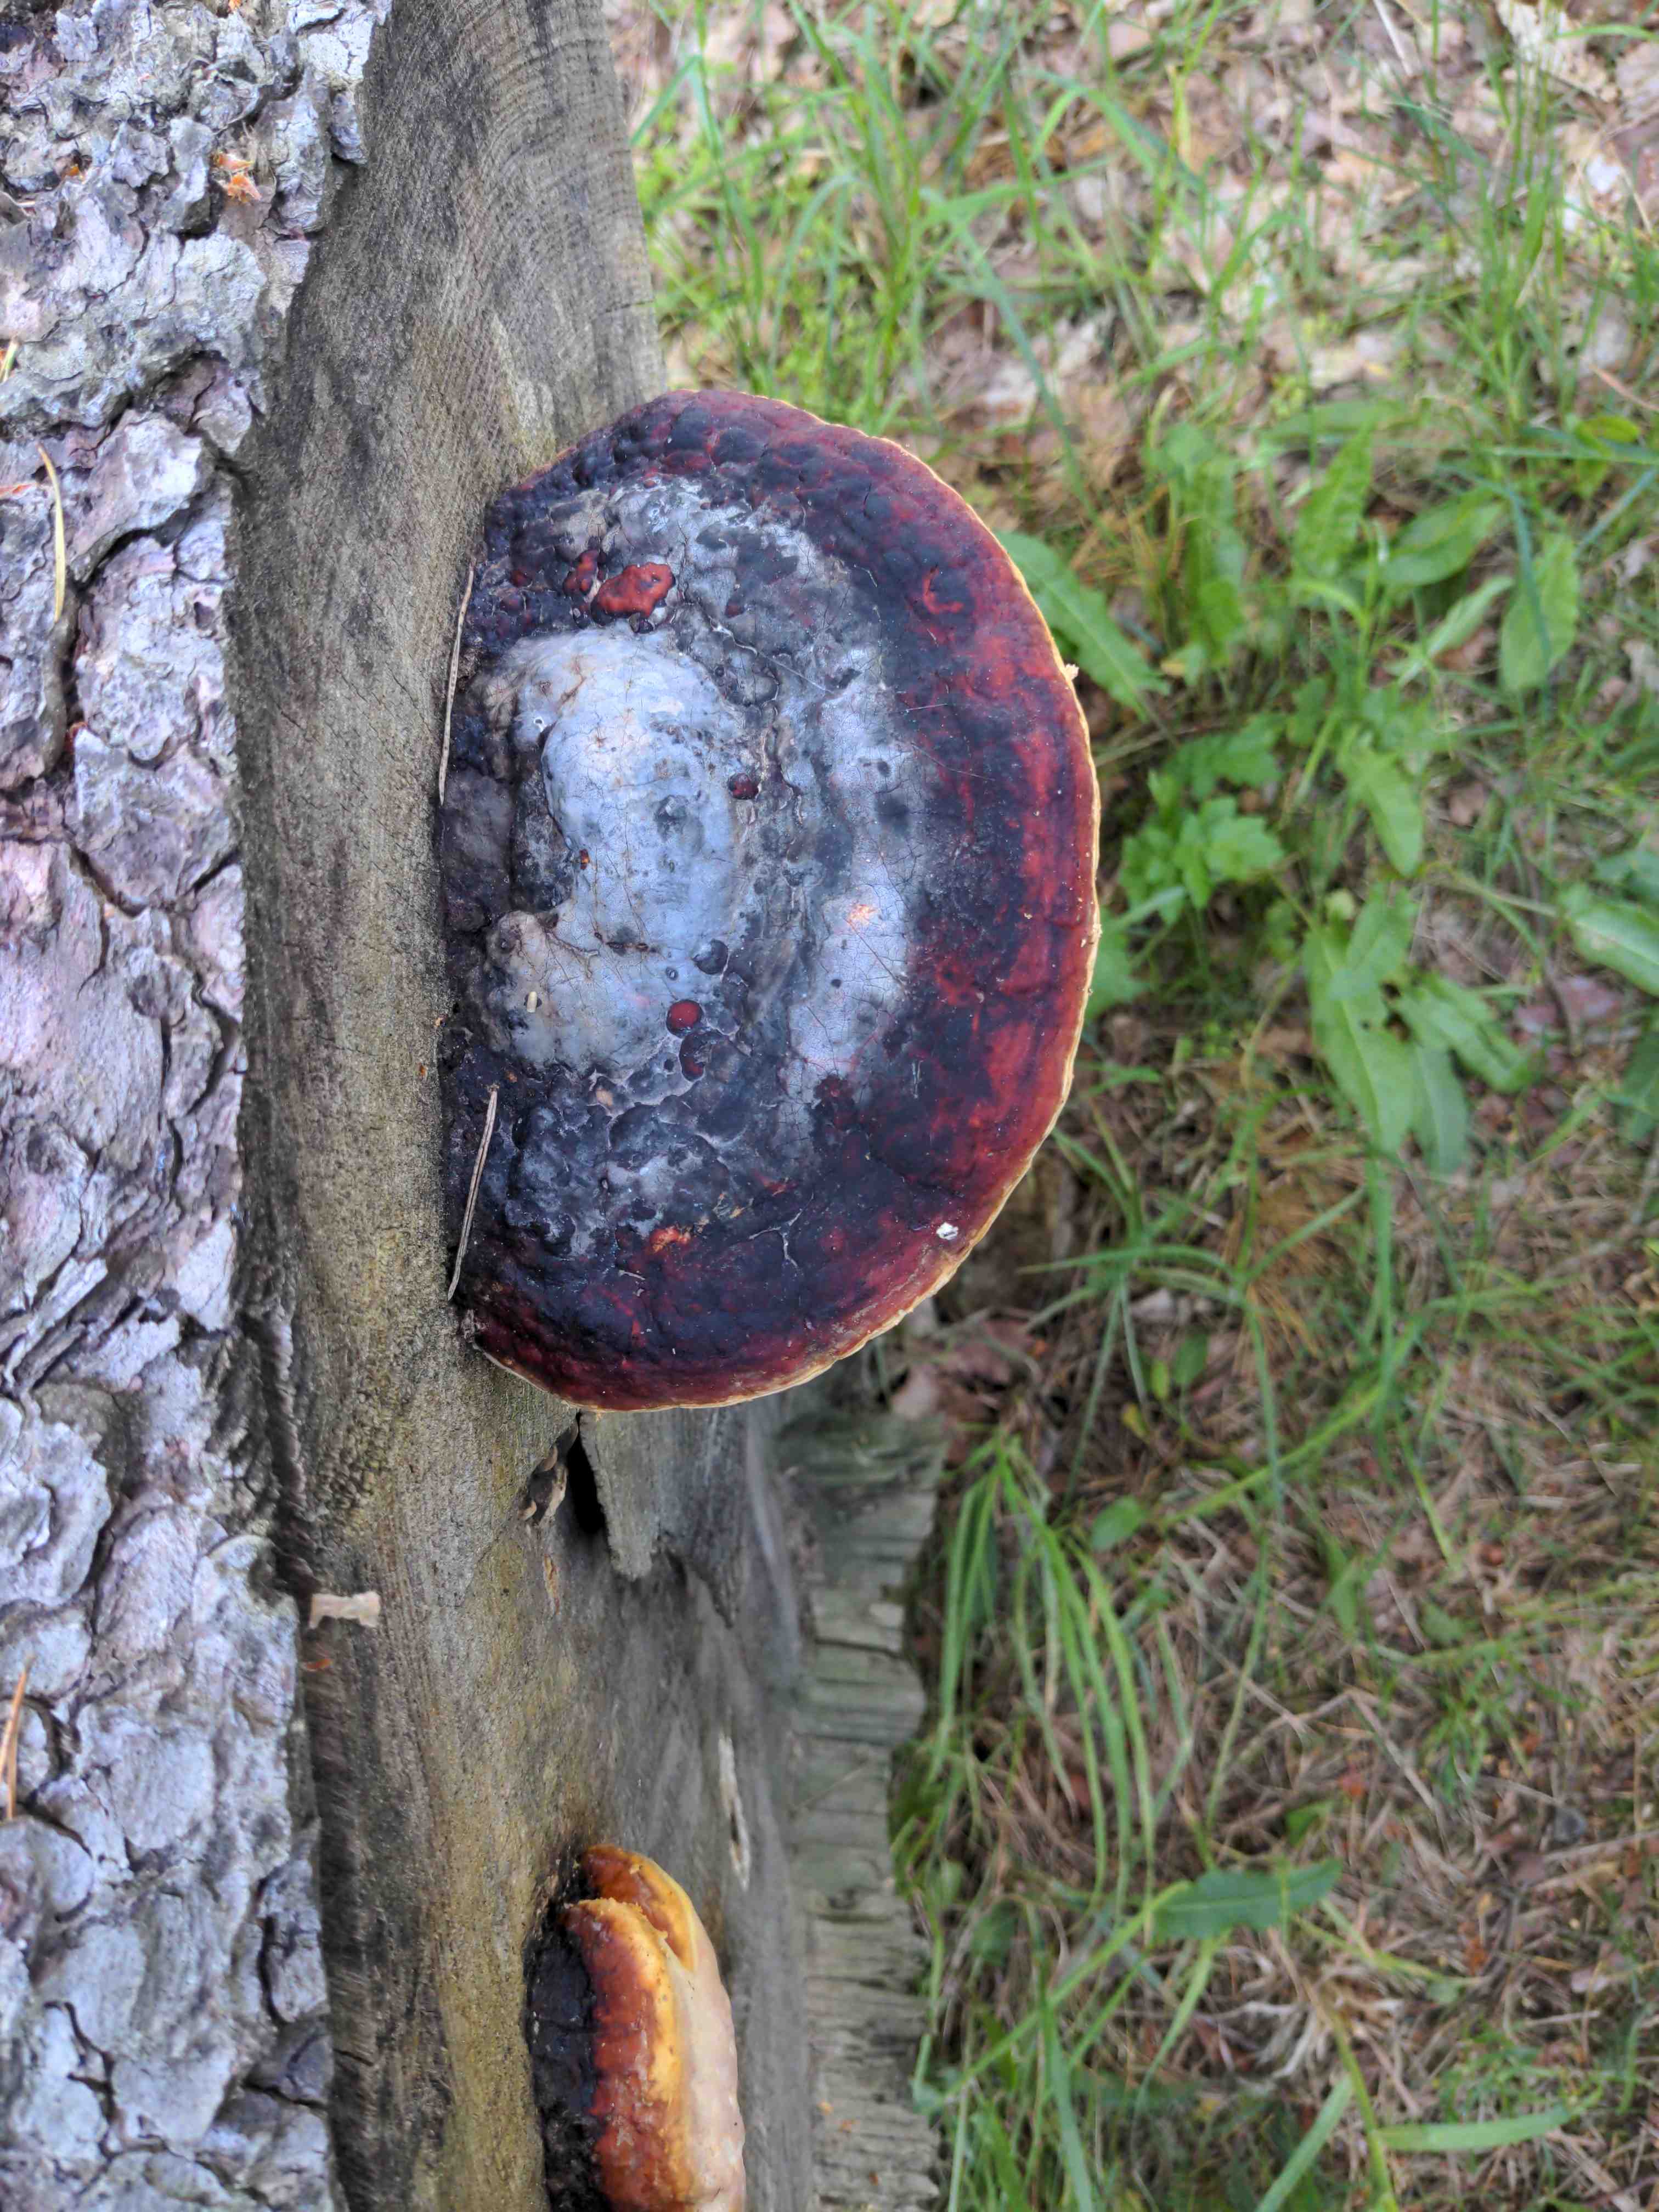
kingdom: Fungi
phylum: Basidiomycota
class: Agaricomycetes
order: Polyporales
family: Fomitopsidaceae
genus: Fomitopsis
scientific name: Fomitopsis pinicola
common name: randbæltet hovporesvamp
